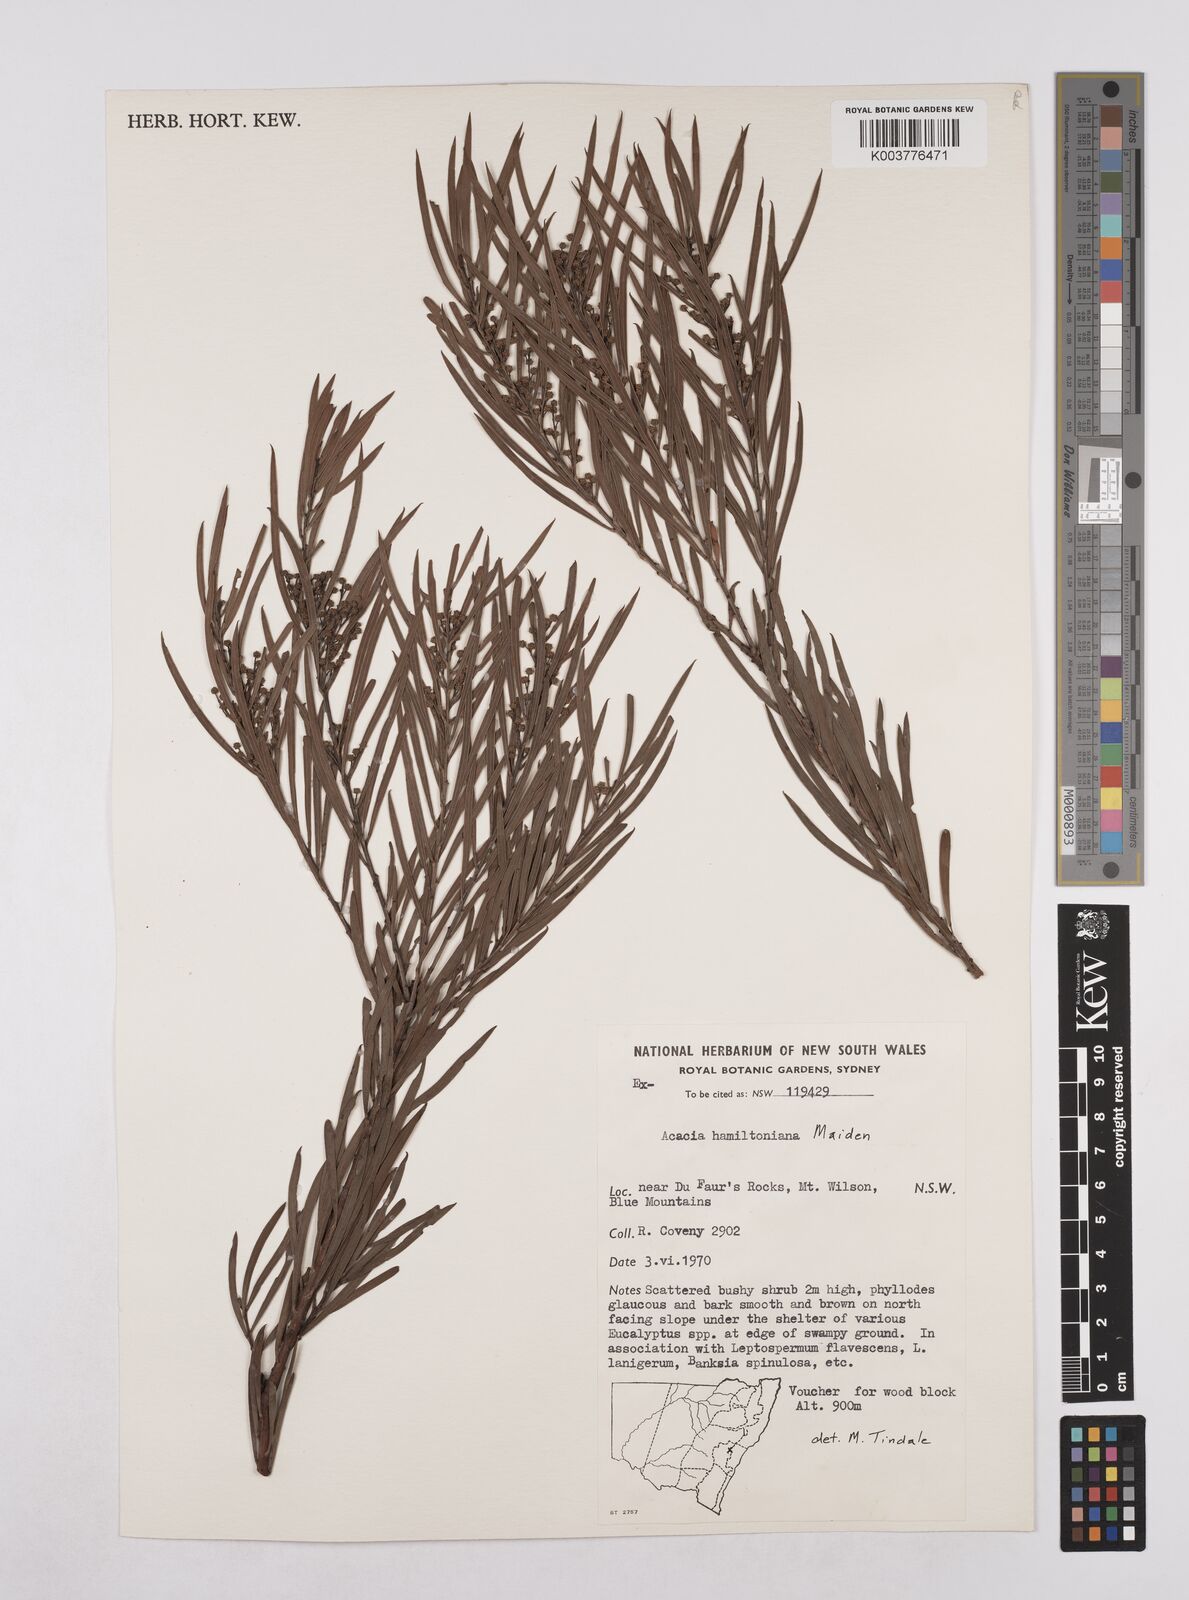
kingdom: Plantae
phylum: Tracheophyta
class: Magnoliopsida
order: Fabales
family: Fabaceae
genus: Acacia
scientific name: Acacia hamiltoniana
